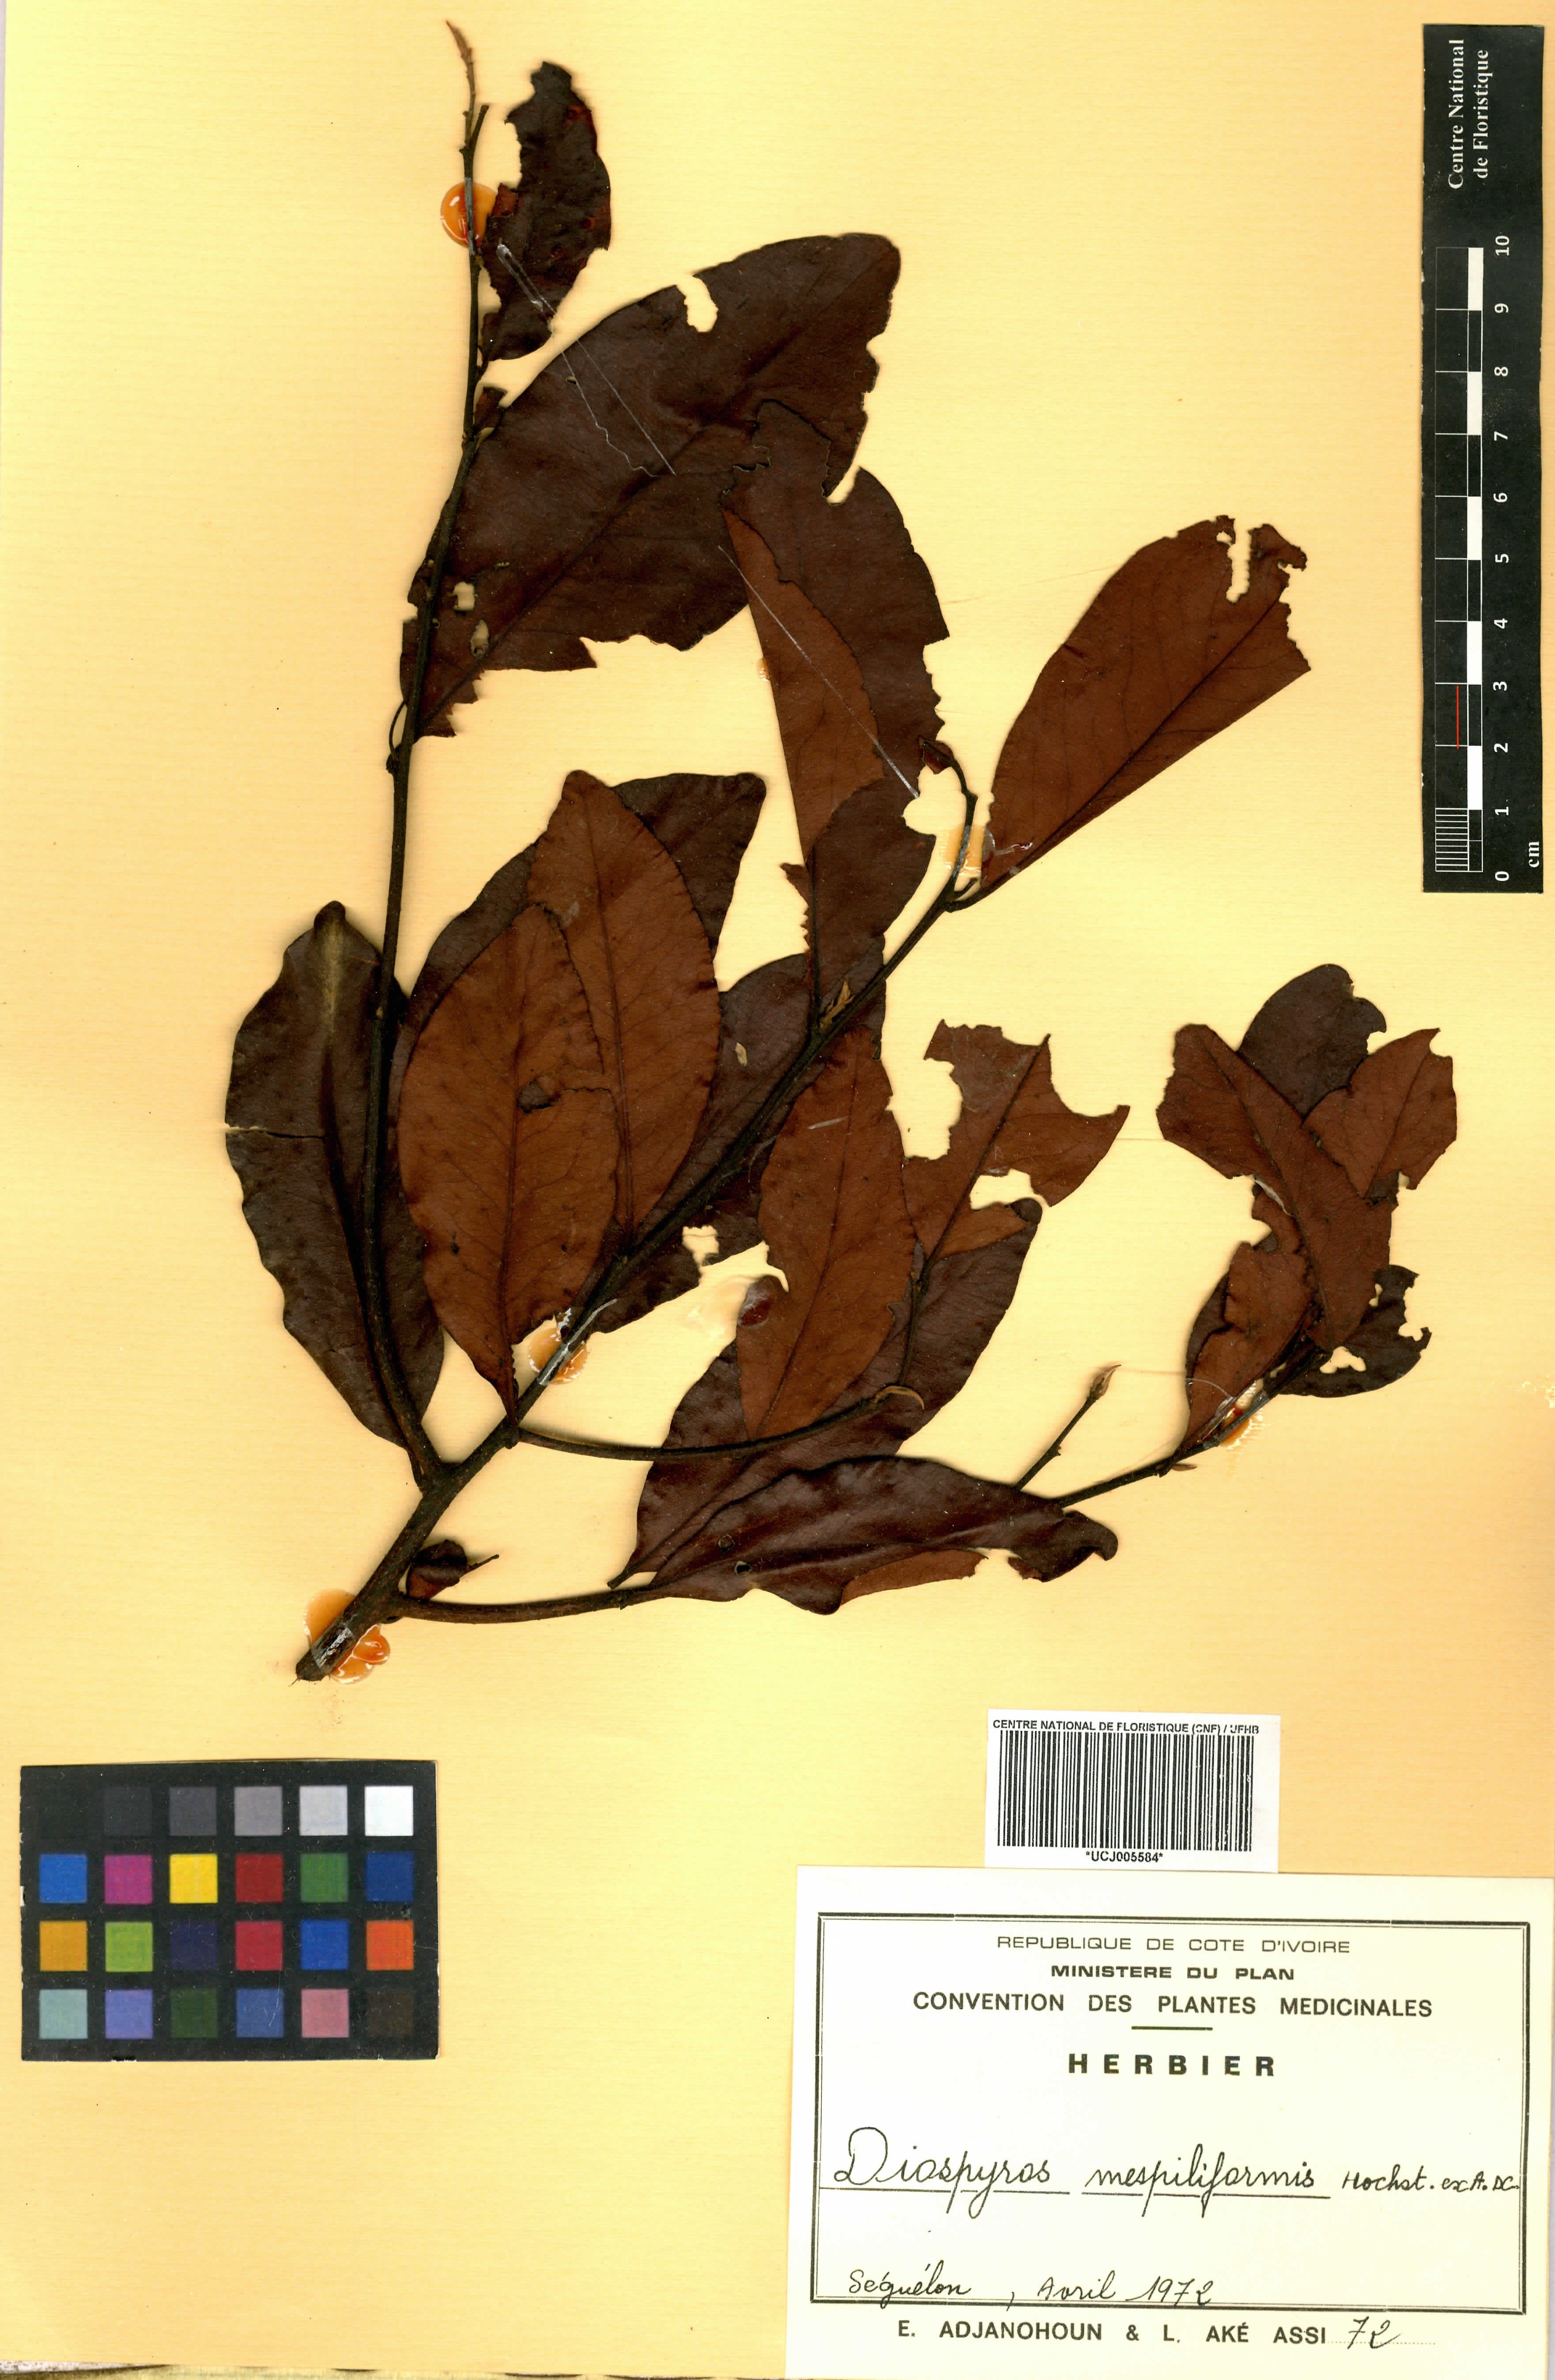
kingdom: Plantae
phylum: Tracheophyta
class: Magnoliopsida
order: Ericales
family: Ebenaceae
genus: Diospyros
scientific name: Diospyros mespiliformis
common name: Ebony diospyros
